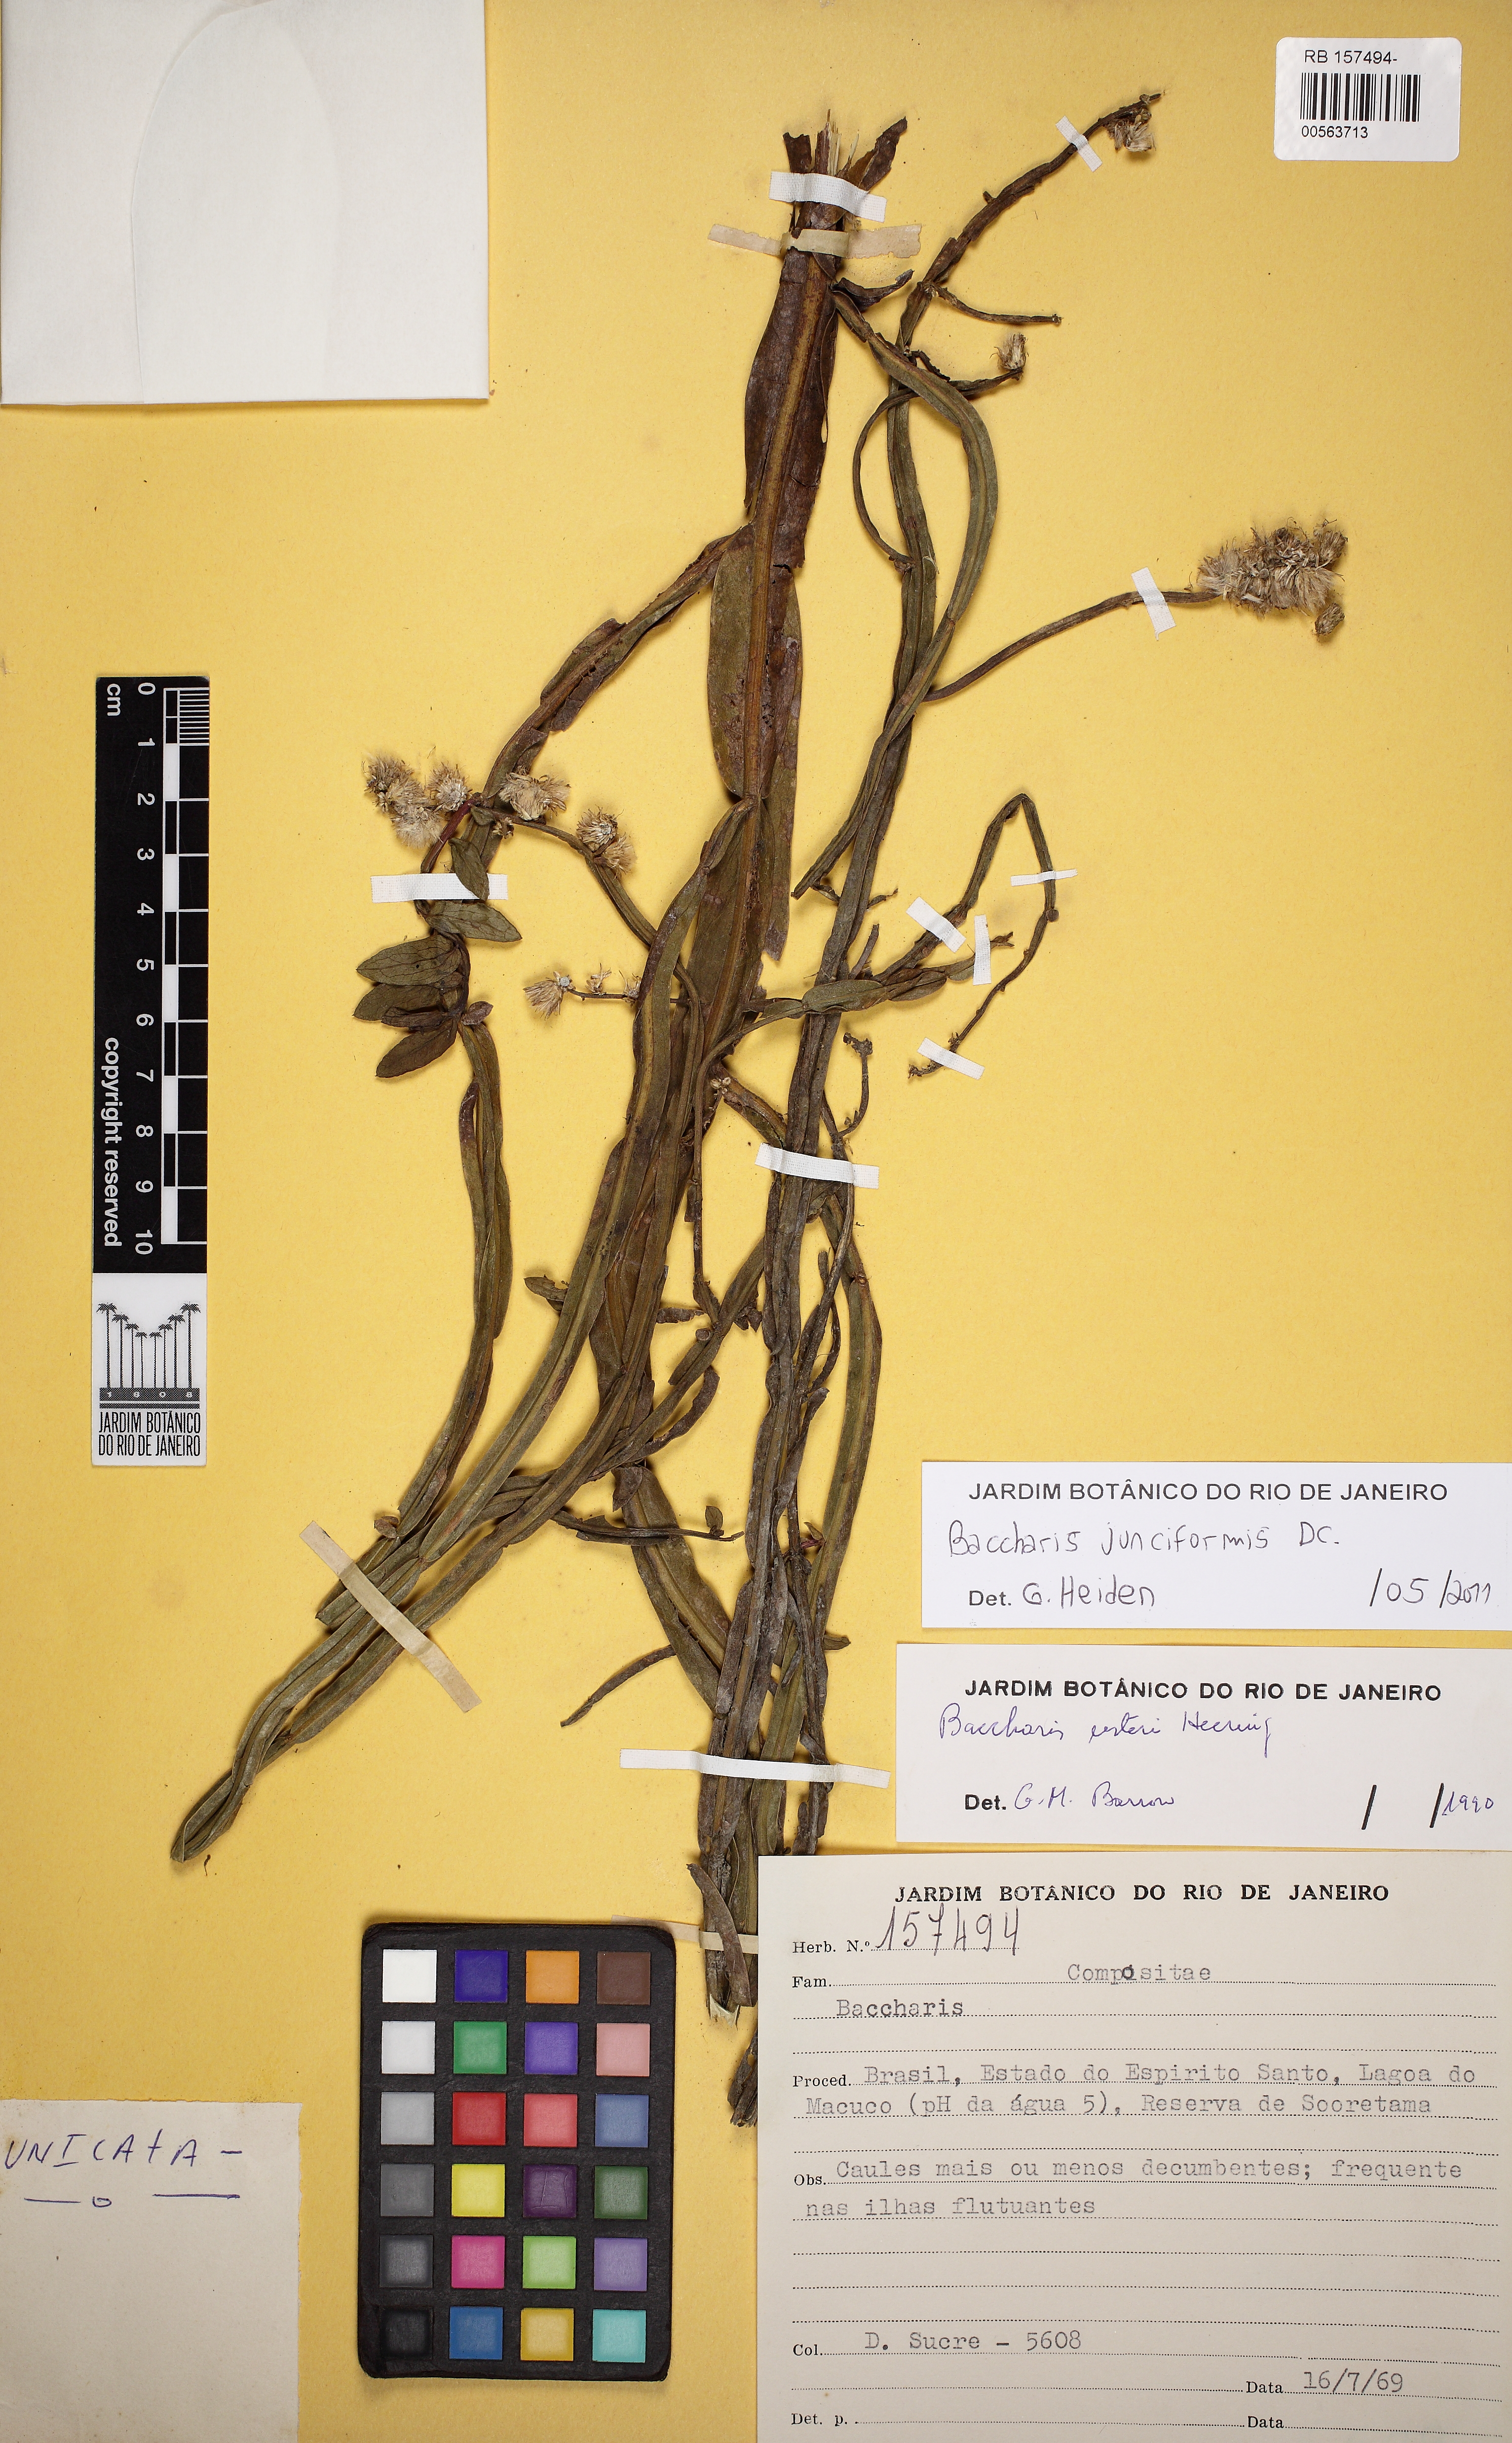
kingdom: Plantae
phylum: Tracheophyta
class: Magnoliopsida
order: Asterales
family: Asteraceae
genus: Baccharis
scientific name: Baccharis junciformis
